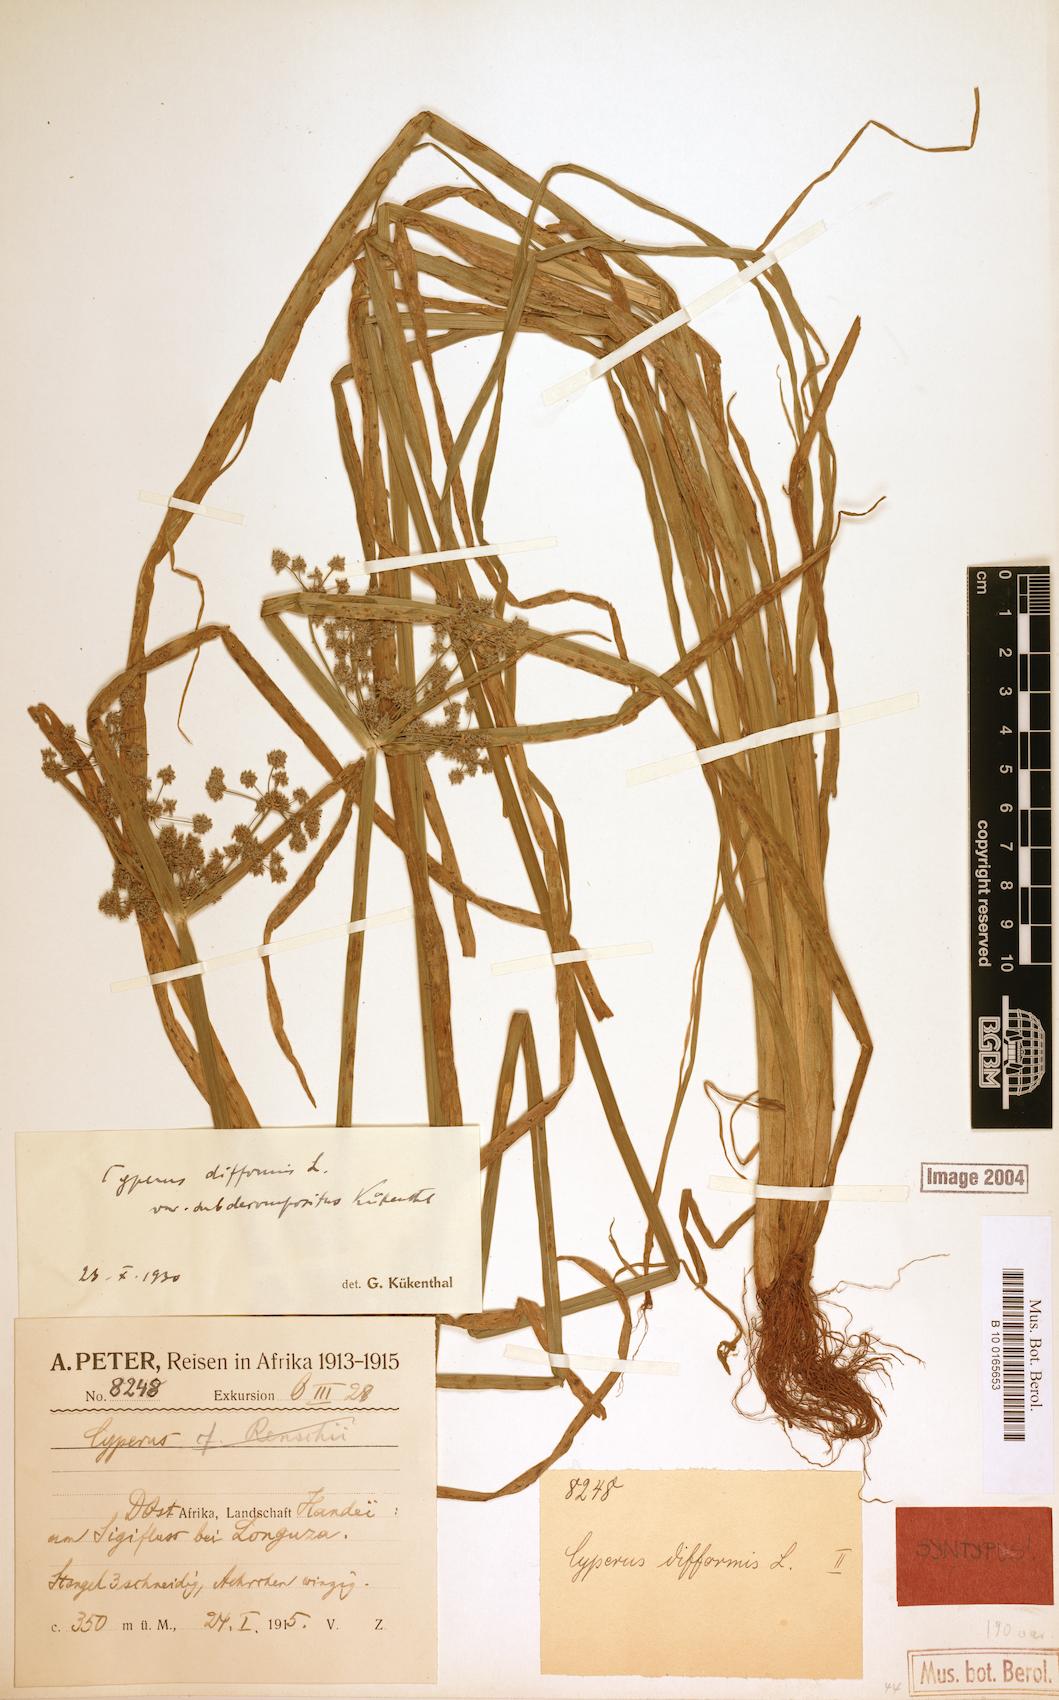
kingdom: Plantae
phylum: Tracheophyta
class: Liliopsida
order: Poales
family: Cyperaceae
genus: Cyperus
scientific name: Cyperus difformis
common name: Variable flatsedge
